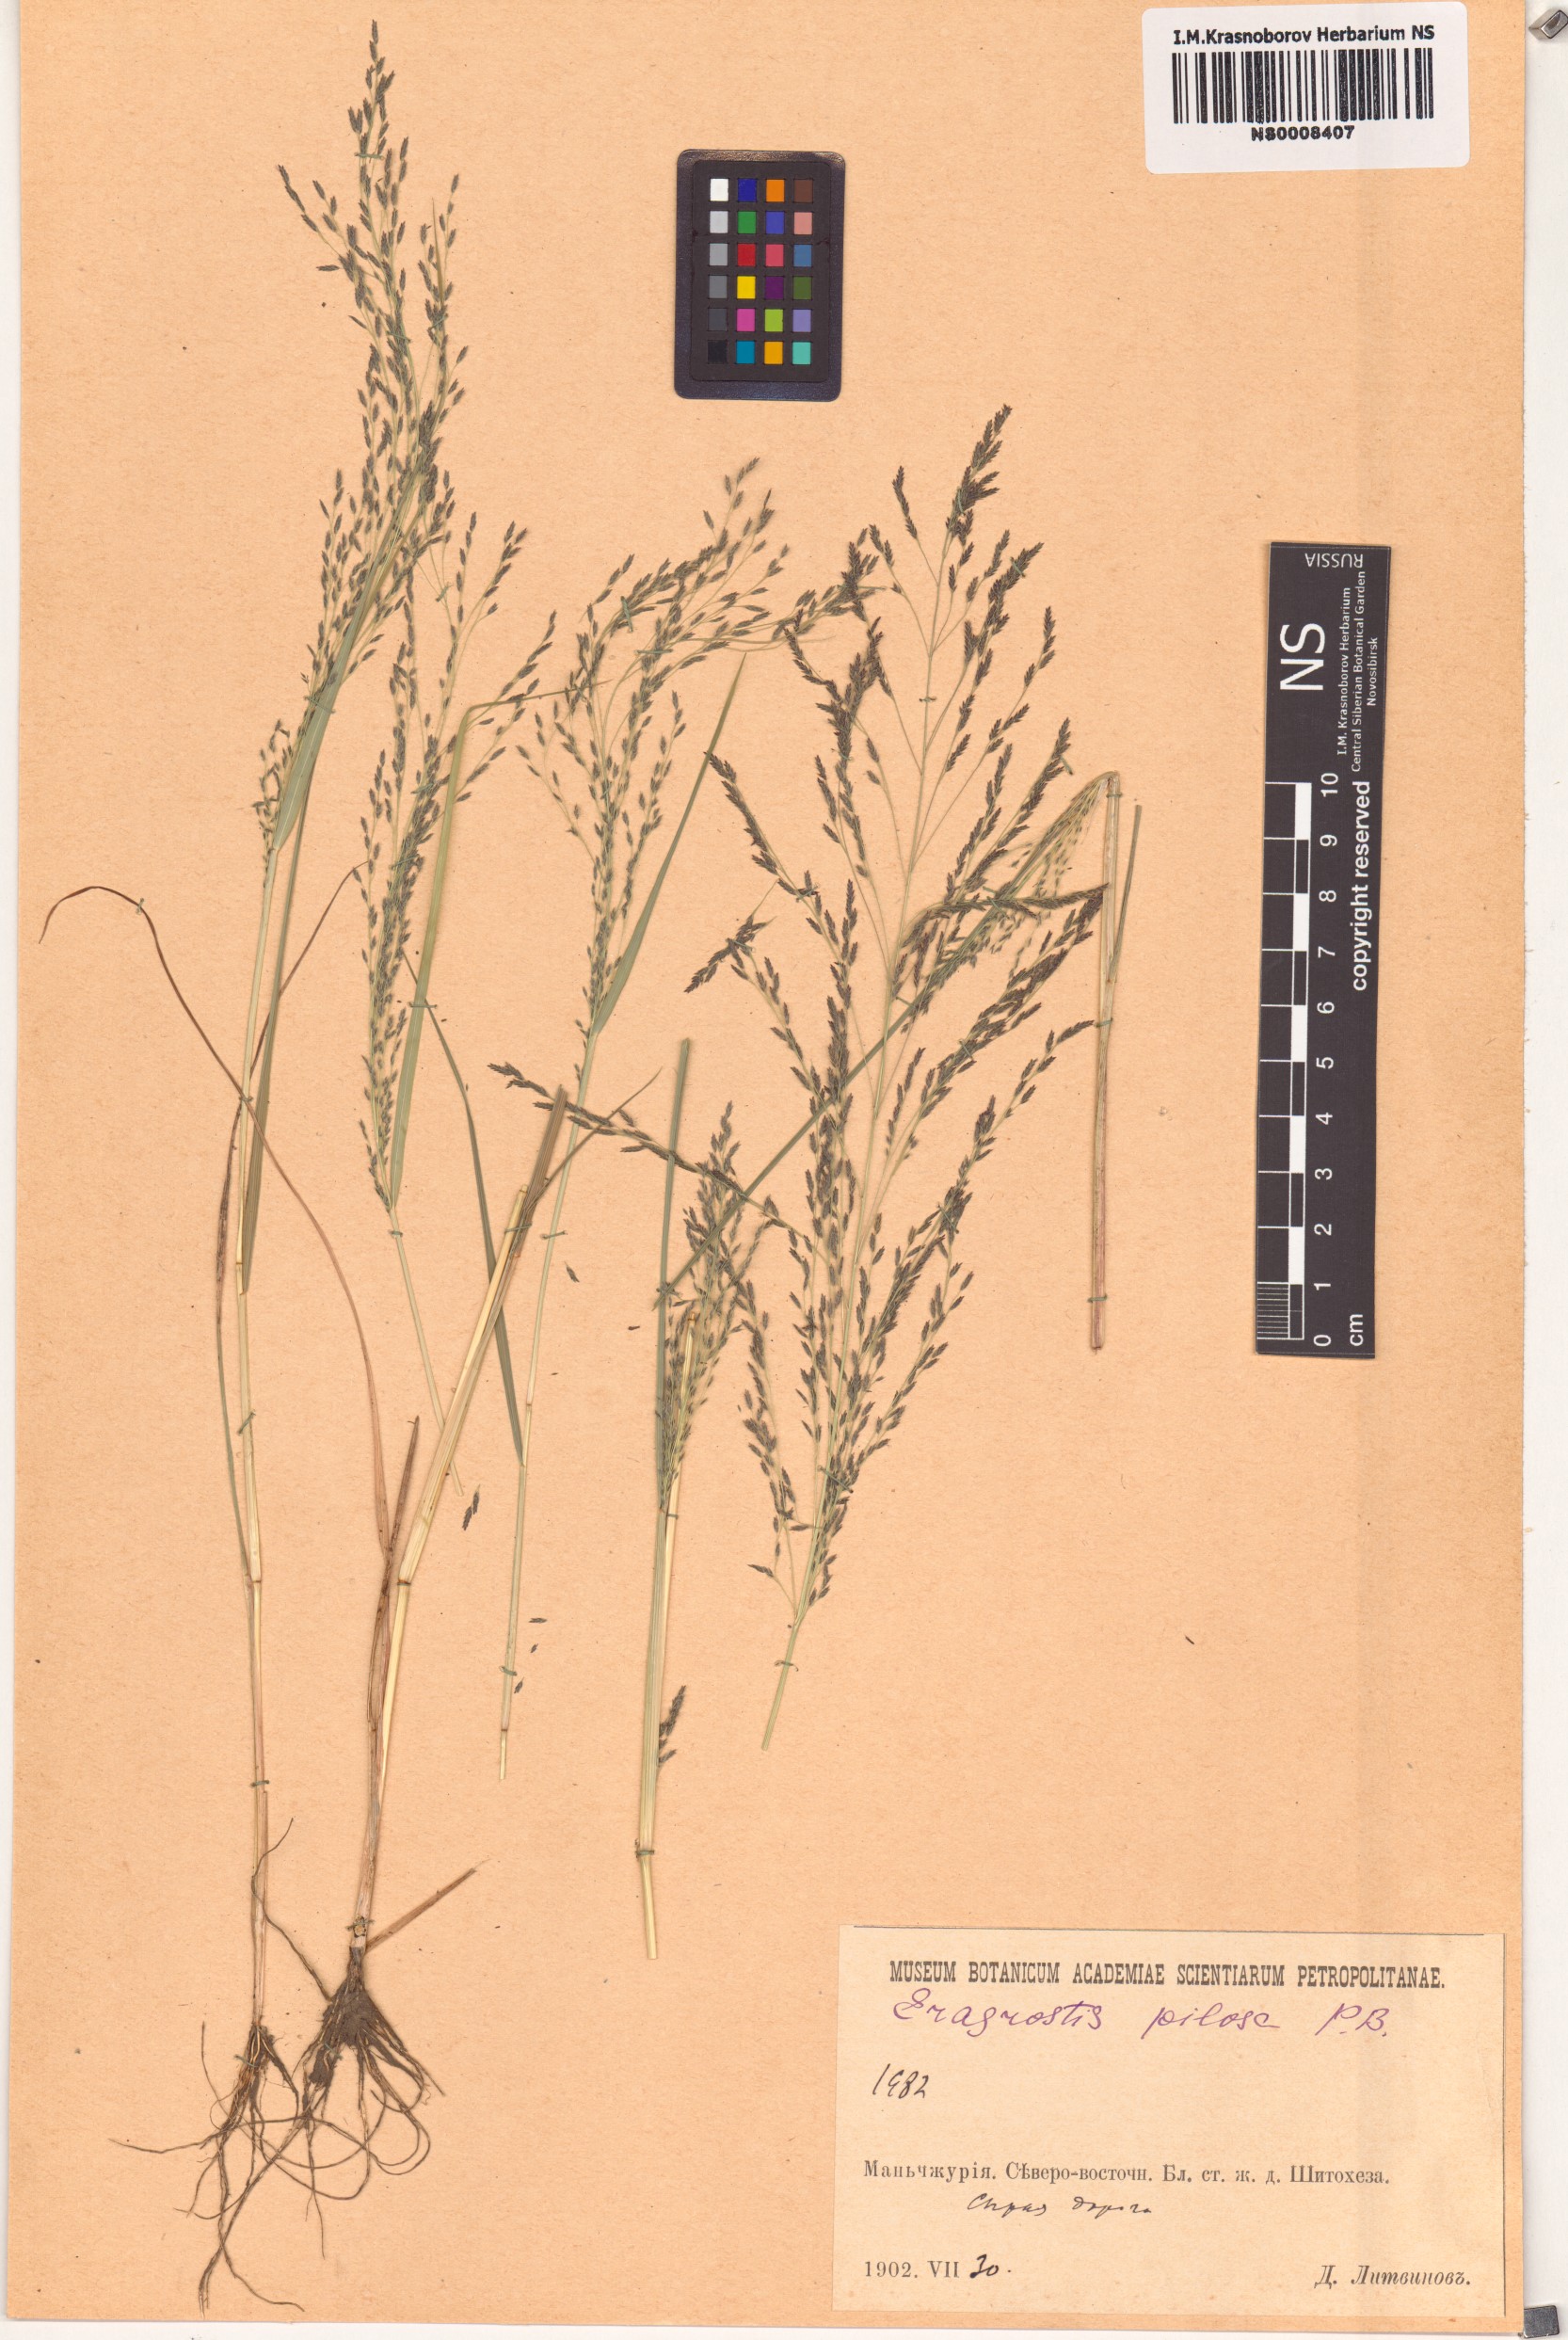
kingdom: Plantae
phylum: Tracheophyta
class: Liliopsida
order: Poales
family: Poaceae
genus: Eragrostis
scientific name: Eragrostis pilosa
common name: Indian lovegrass
